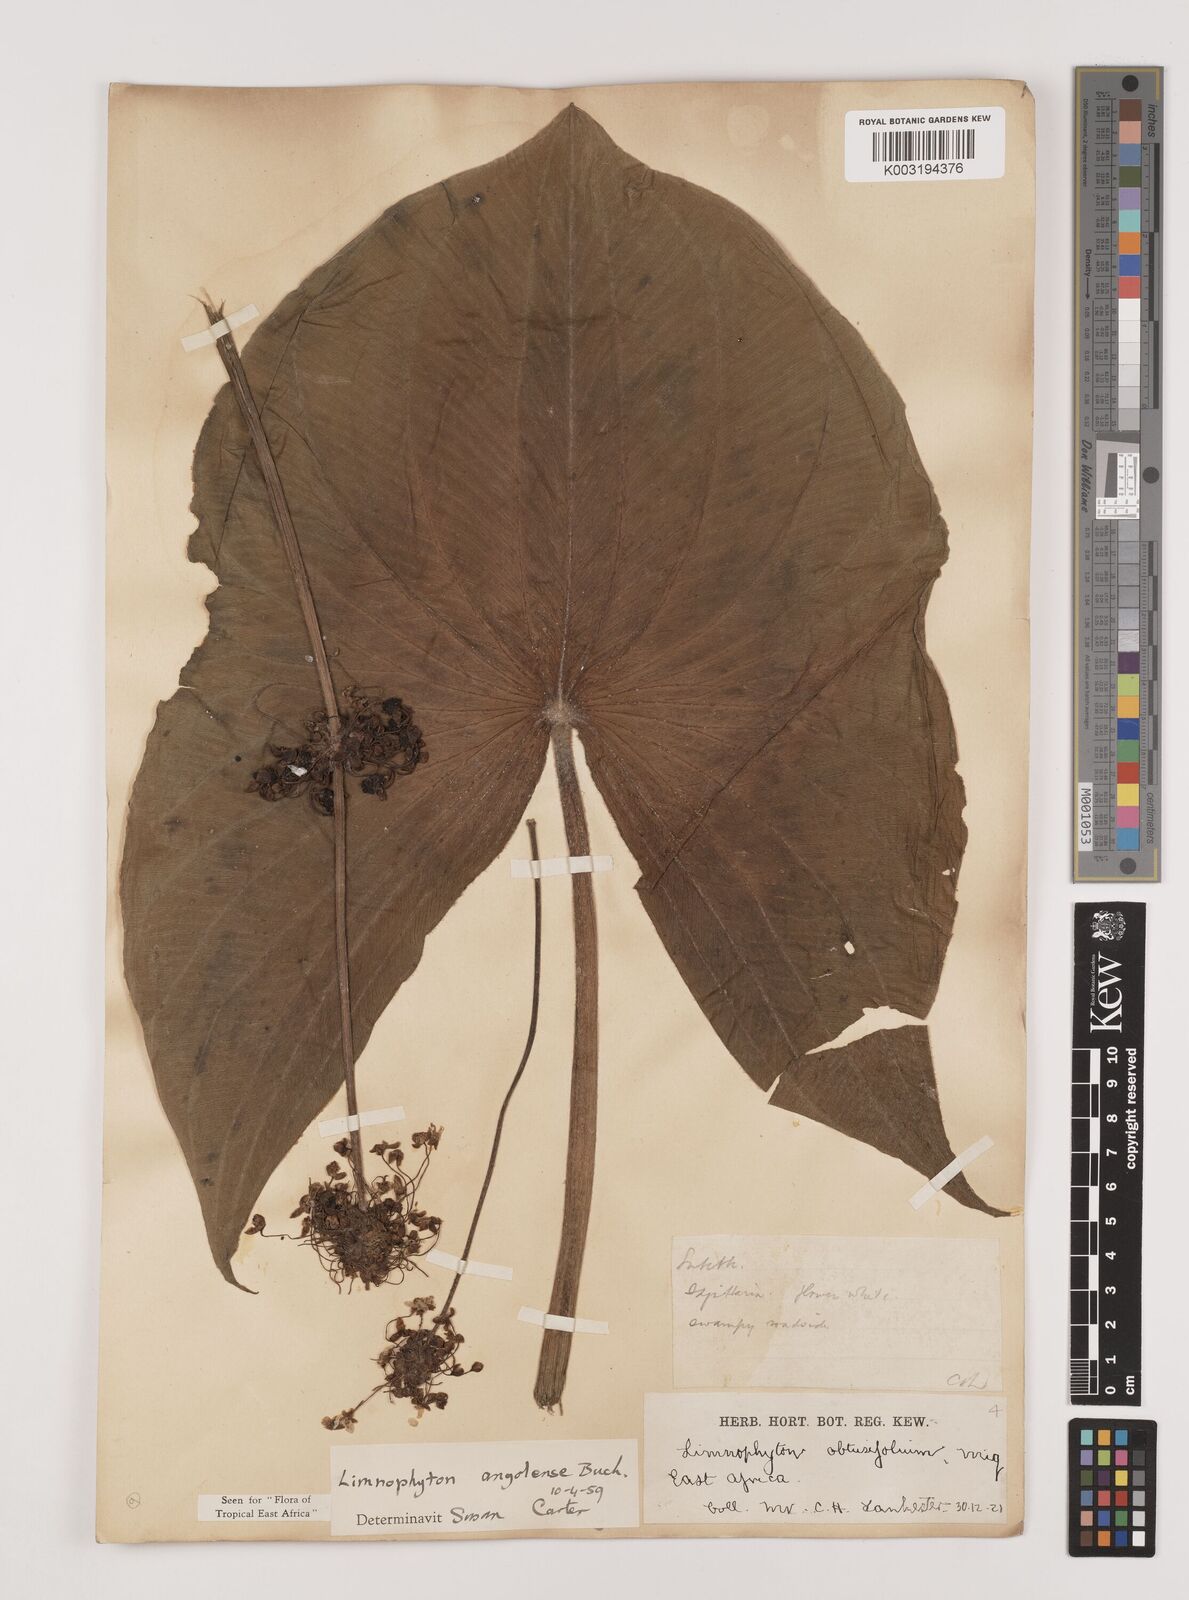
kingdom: Plantae
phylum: Tracheophyta
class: Liliopsida
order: Alismatales
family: Alismataceae
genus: Limnophyton
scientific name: Limnophyton angolense
